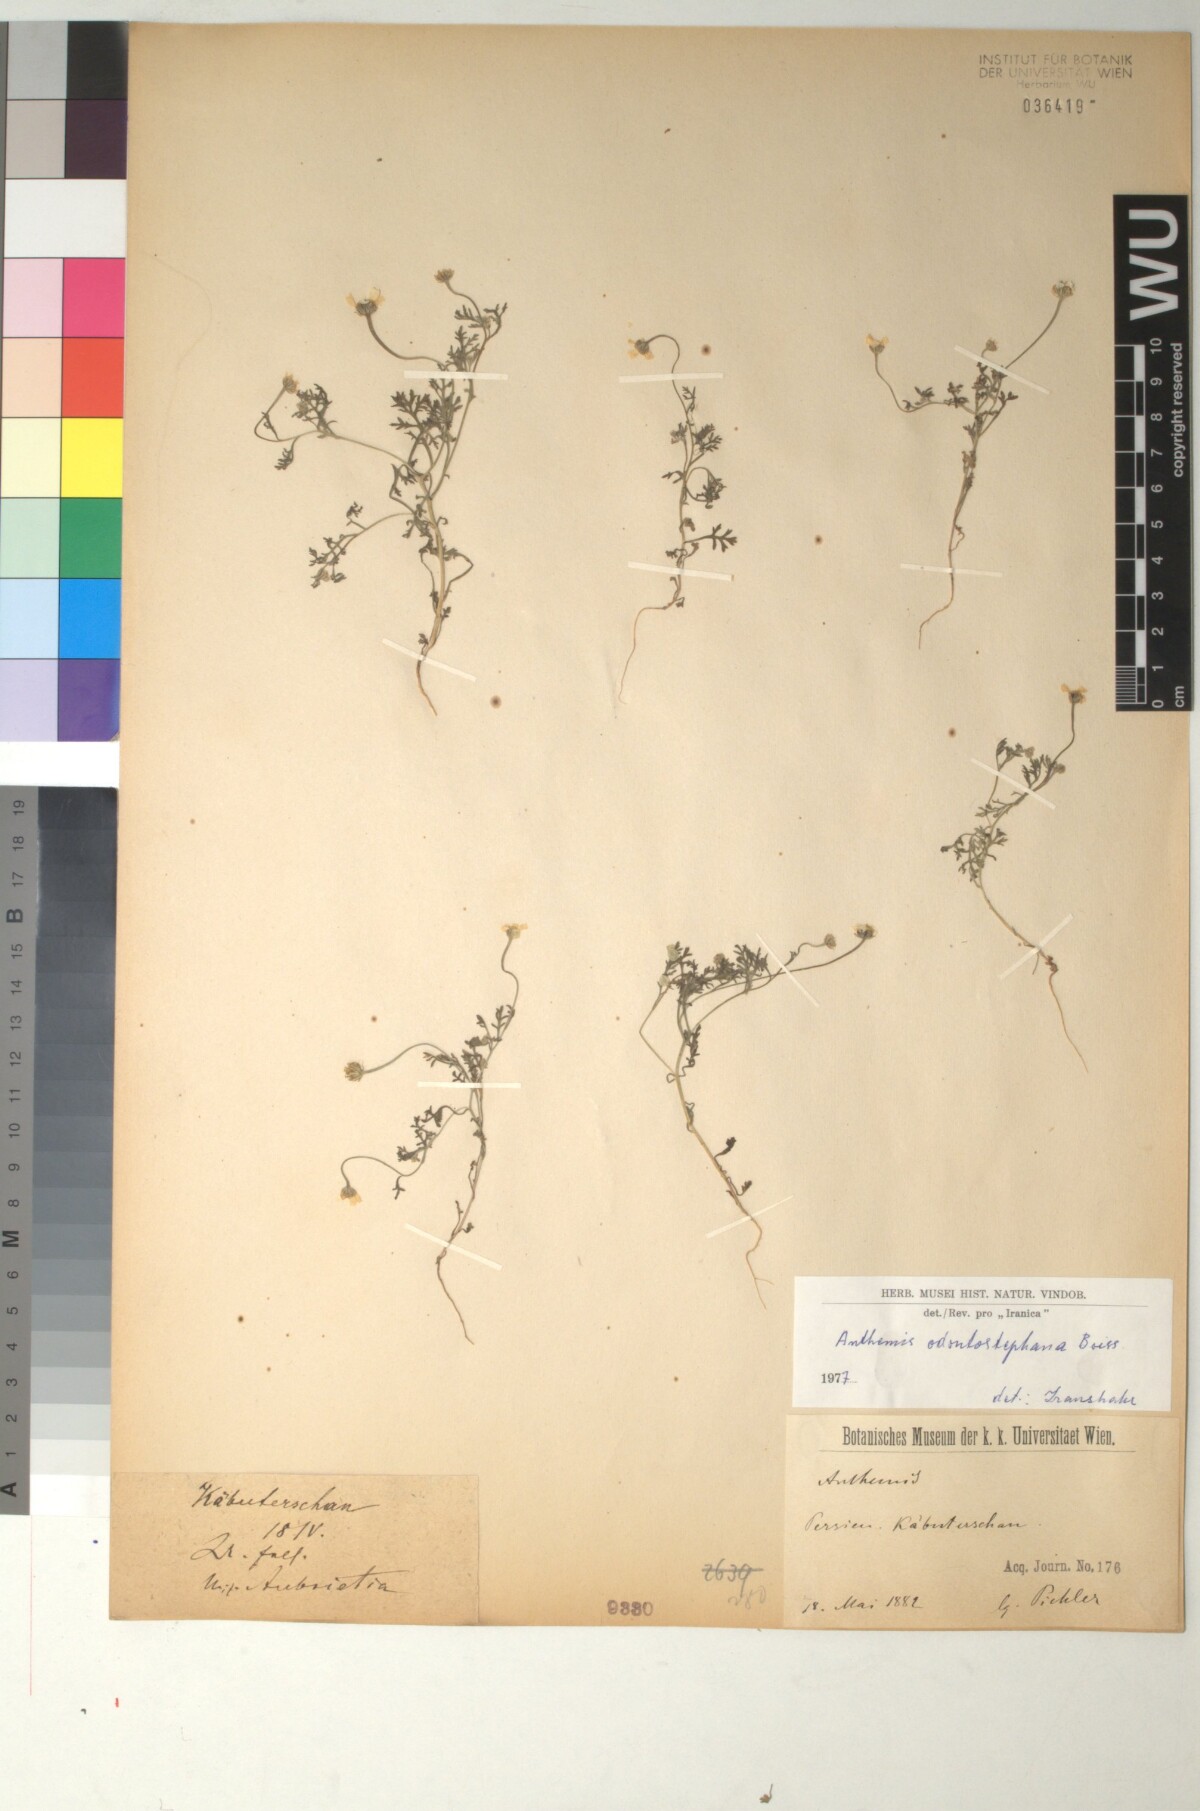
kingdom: Plantae
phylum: Tracheophyta
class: Magnoliopsida
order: Asterales
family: Asteraceae
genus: Anthemis
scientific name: Anthemis odontostephana
